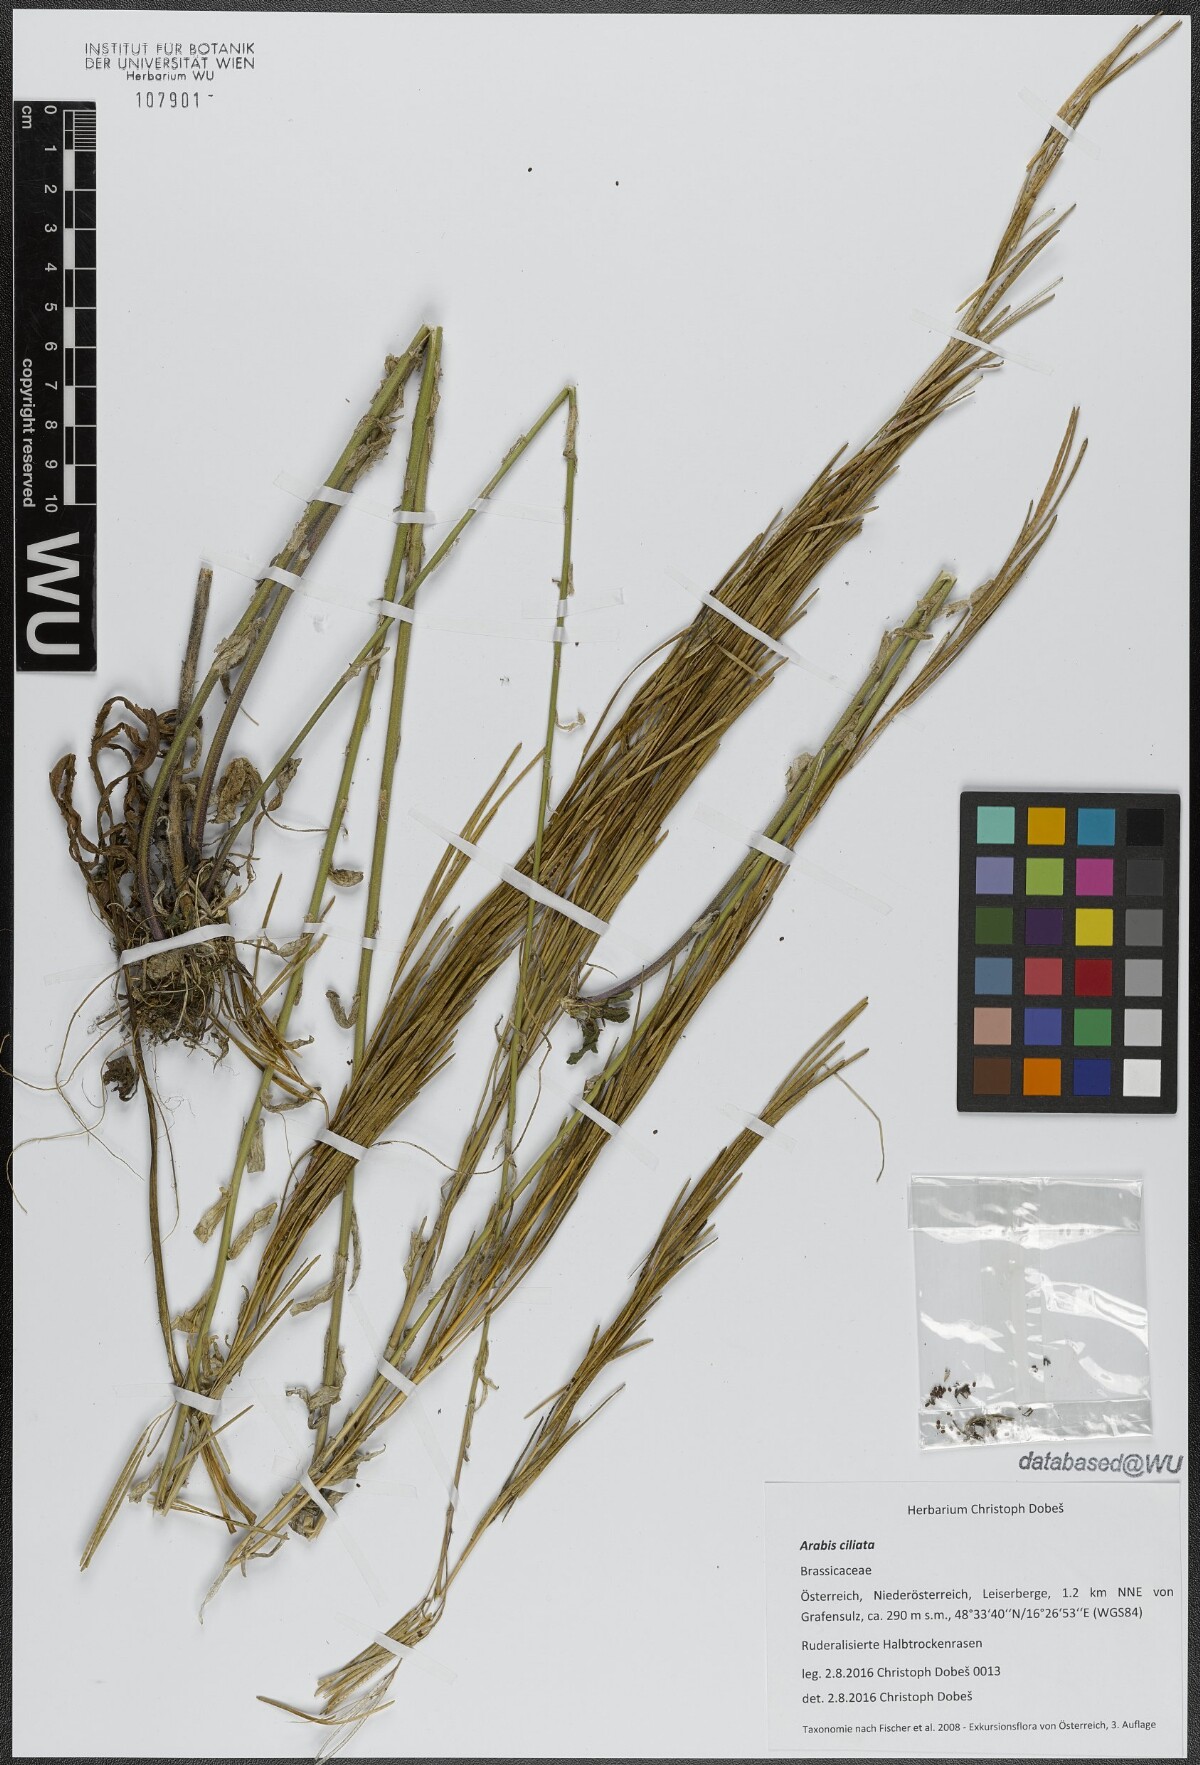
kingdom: Plantae
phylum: Tracheophyta
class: Magnoliopsida
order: Brassicales
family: Brassicaceae
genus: Arabis
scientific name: Arabis ciliata
